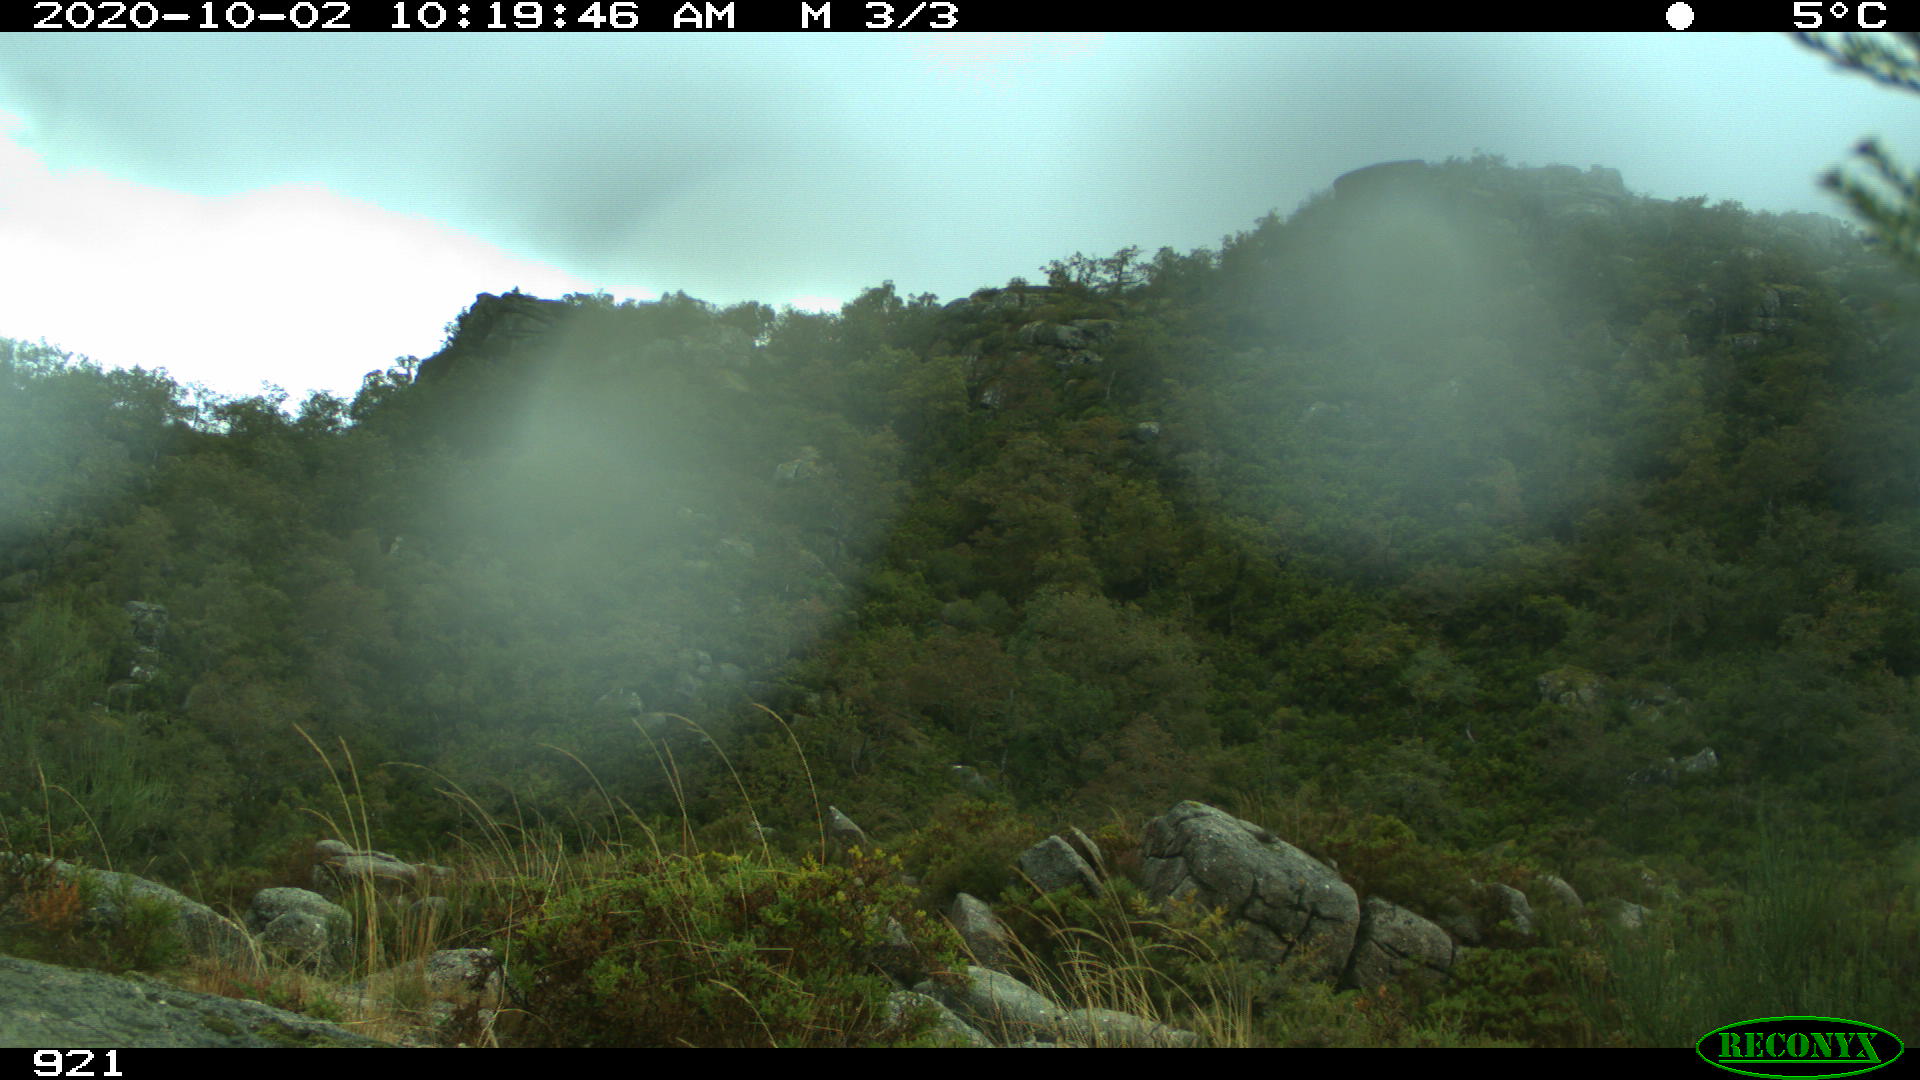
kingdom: Animalia
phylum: Chordata
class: Mammalia
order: Perissodactyla
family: Equidae
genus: Equus
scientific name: Equus caballus
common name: Horse
